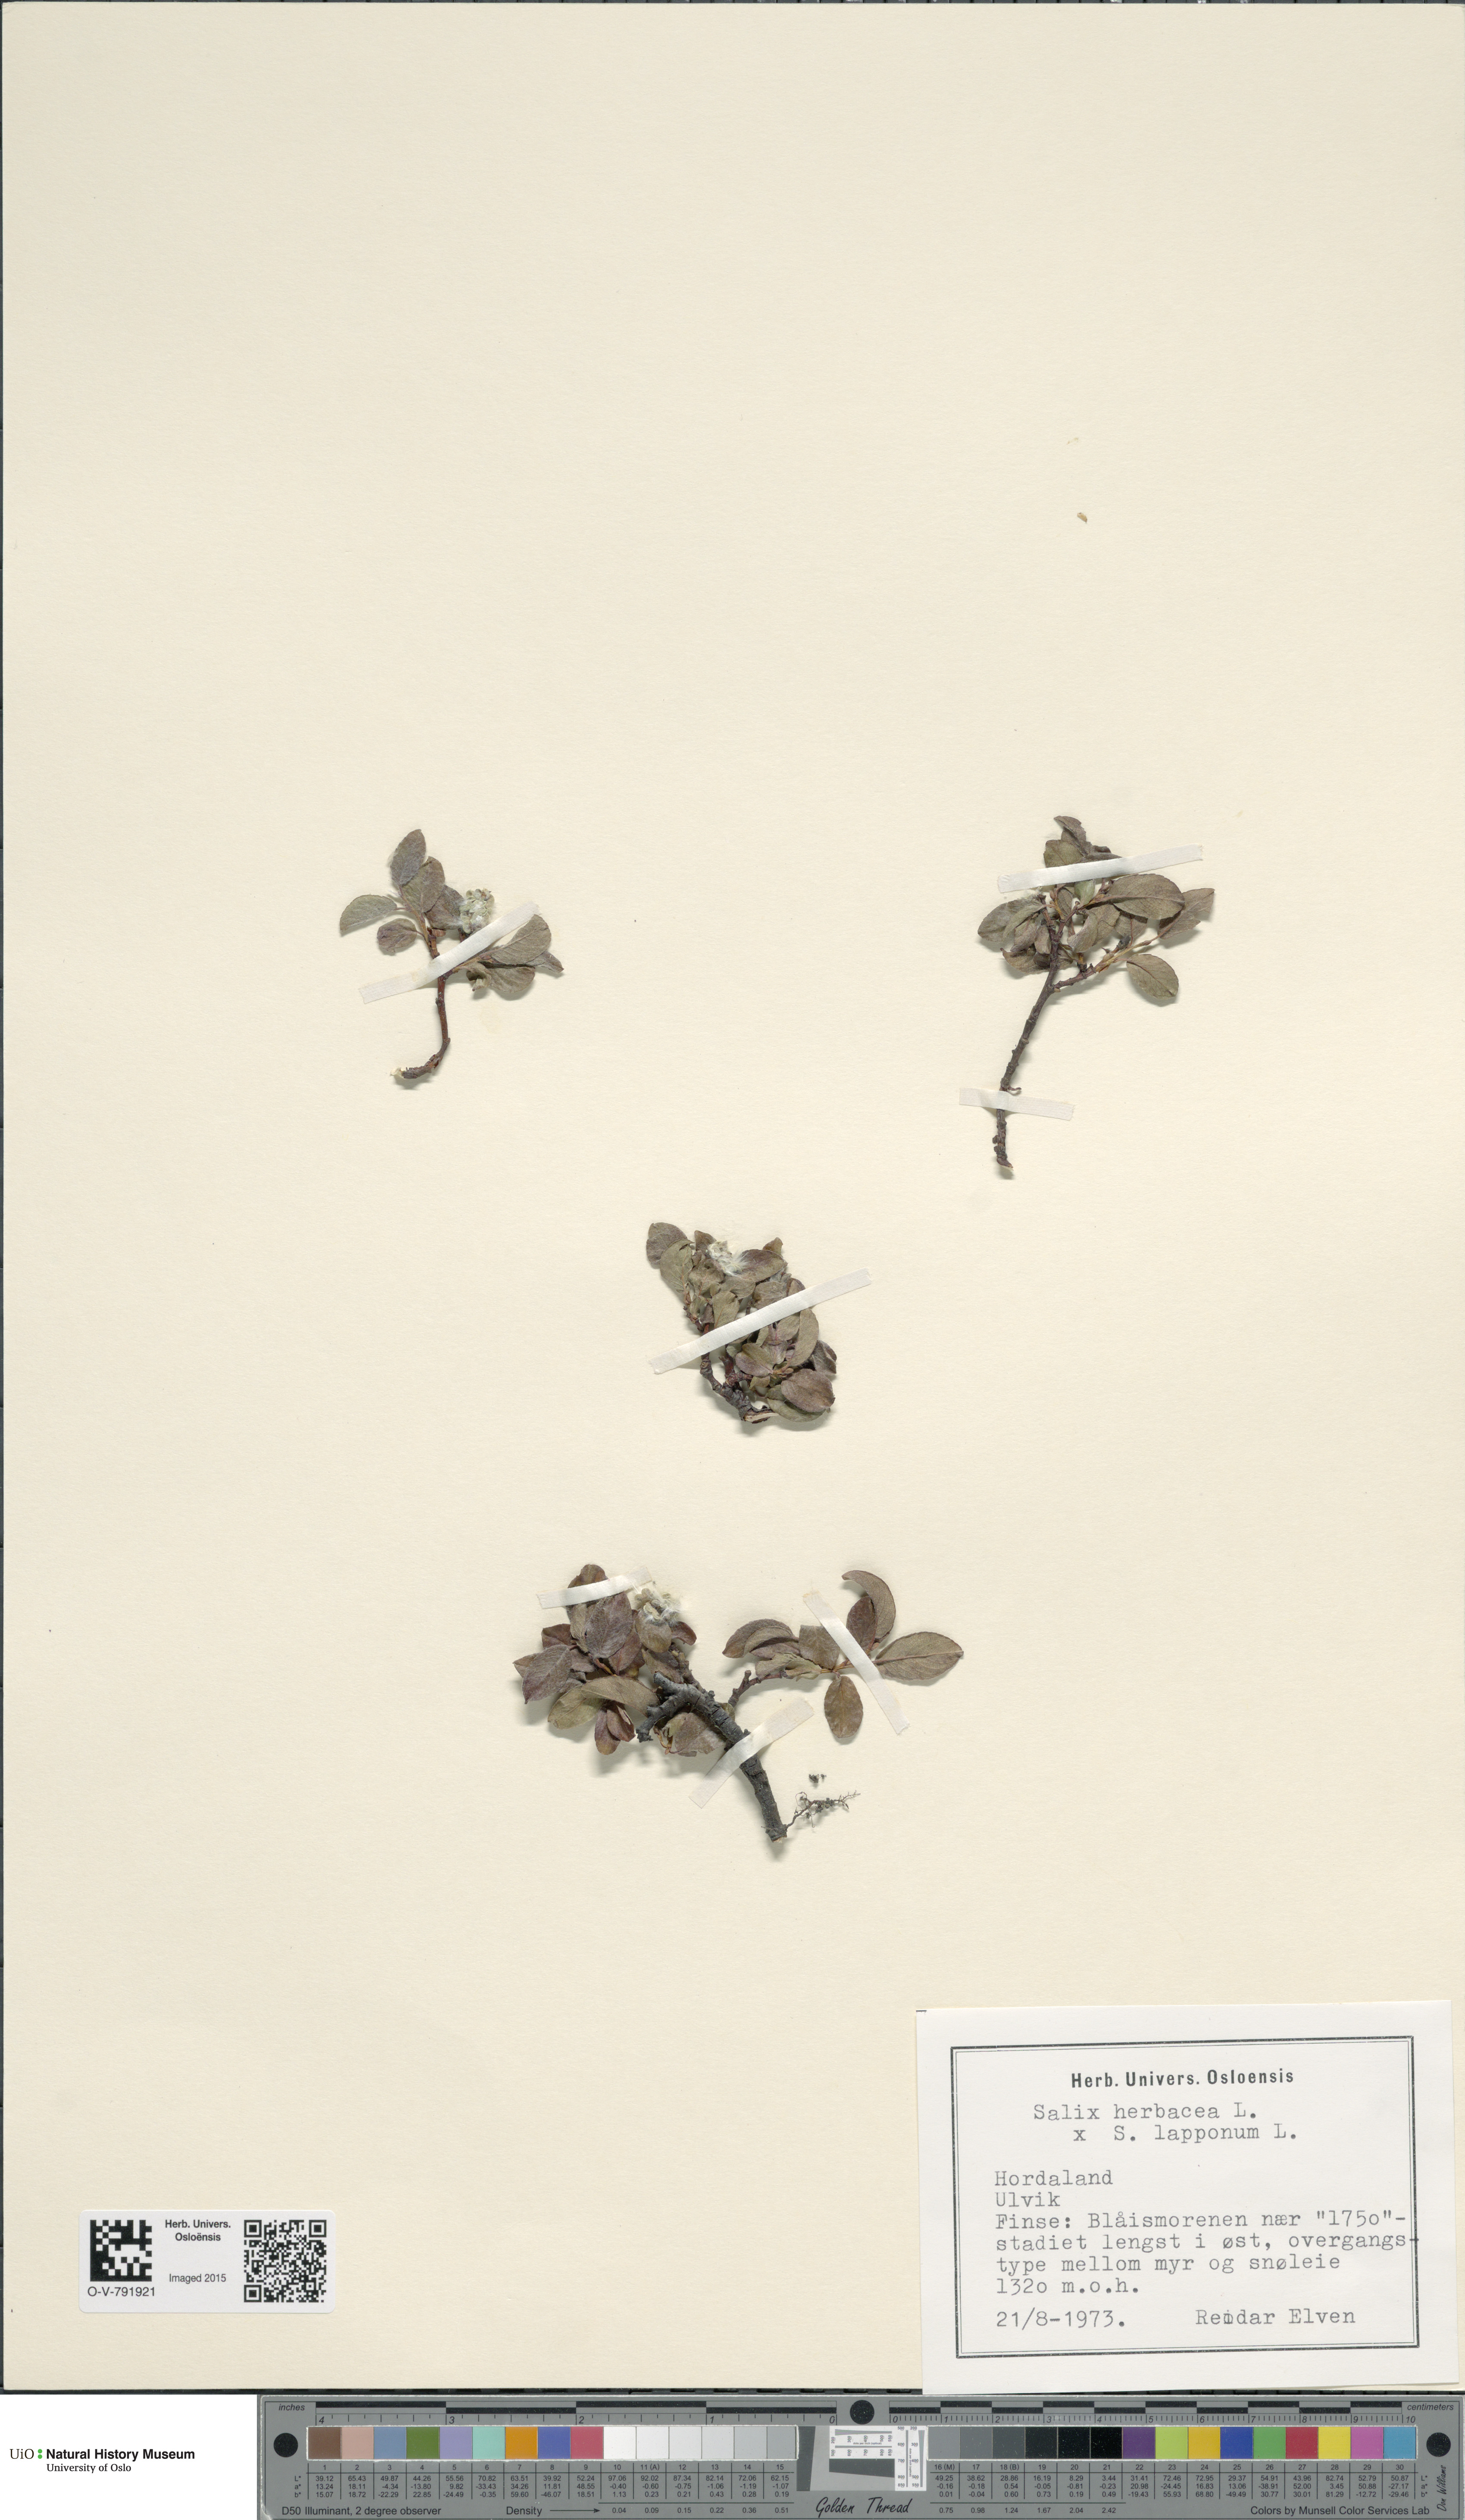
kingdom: Plantae
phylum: Tracheophyta
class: Magnoliopsida
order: Malpighiales
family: Salicaceae
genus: Salix
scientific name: Salix
